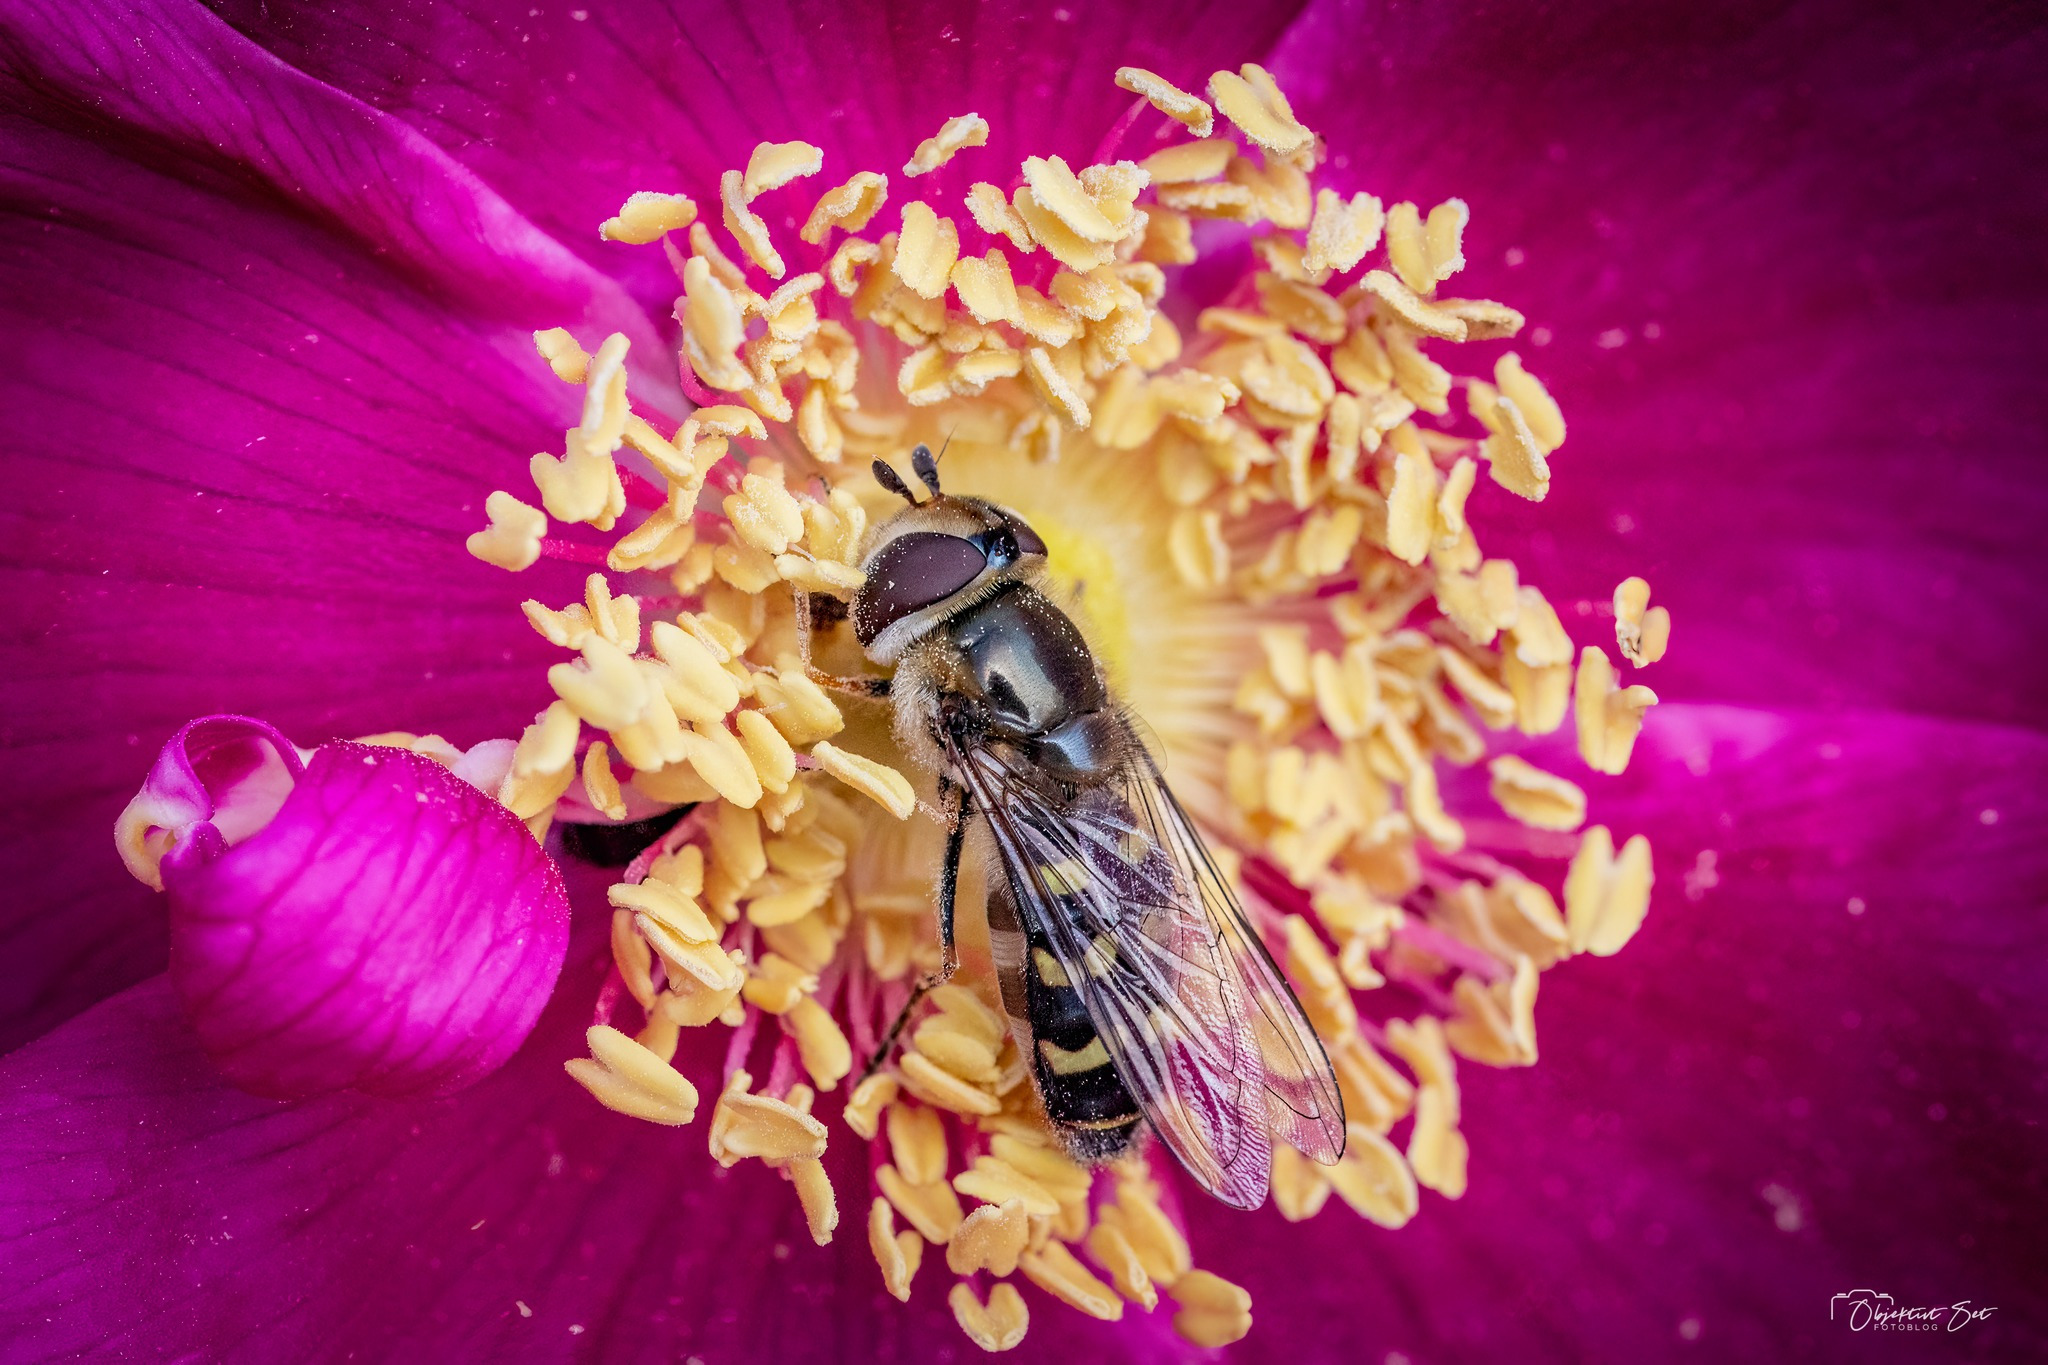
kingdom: Animalia
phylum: Arthropoda
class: Insecta
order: Diptera
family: Syrphidae
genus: Scaeva
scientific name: Scaeva selenitica
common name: Gulplettet agersvirreflue
